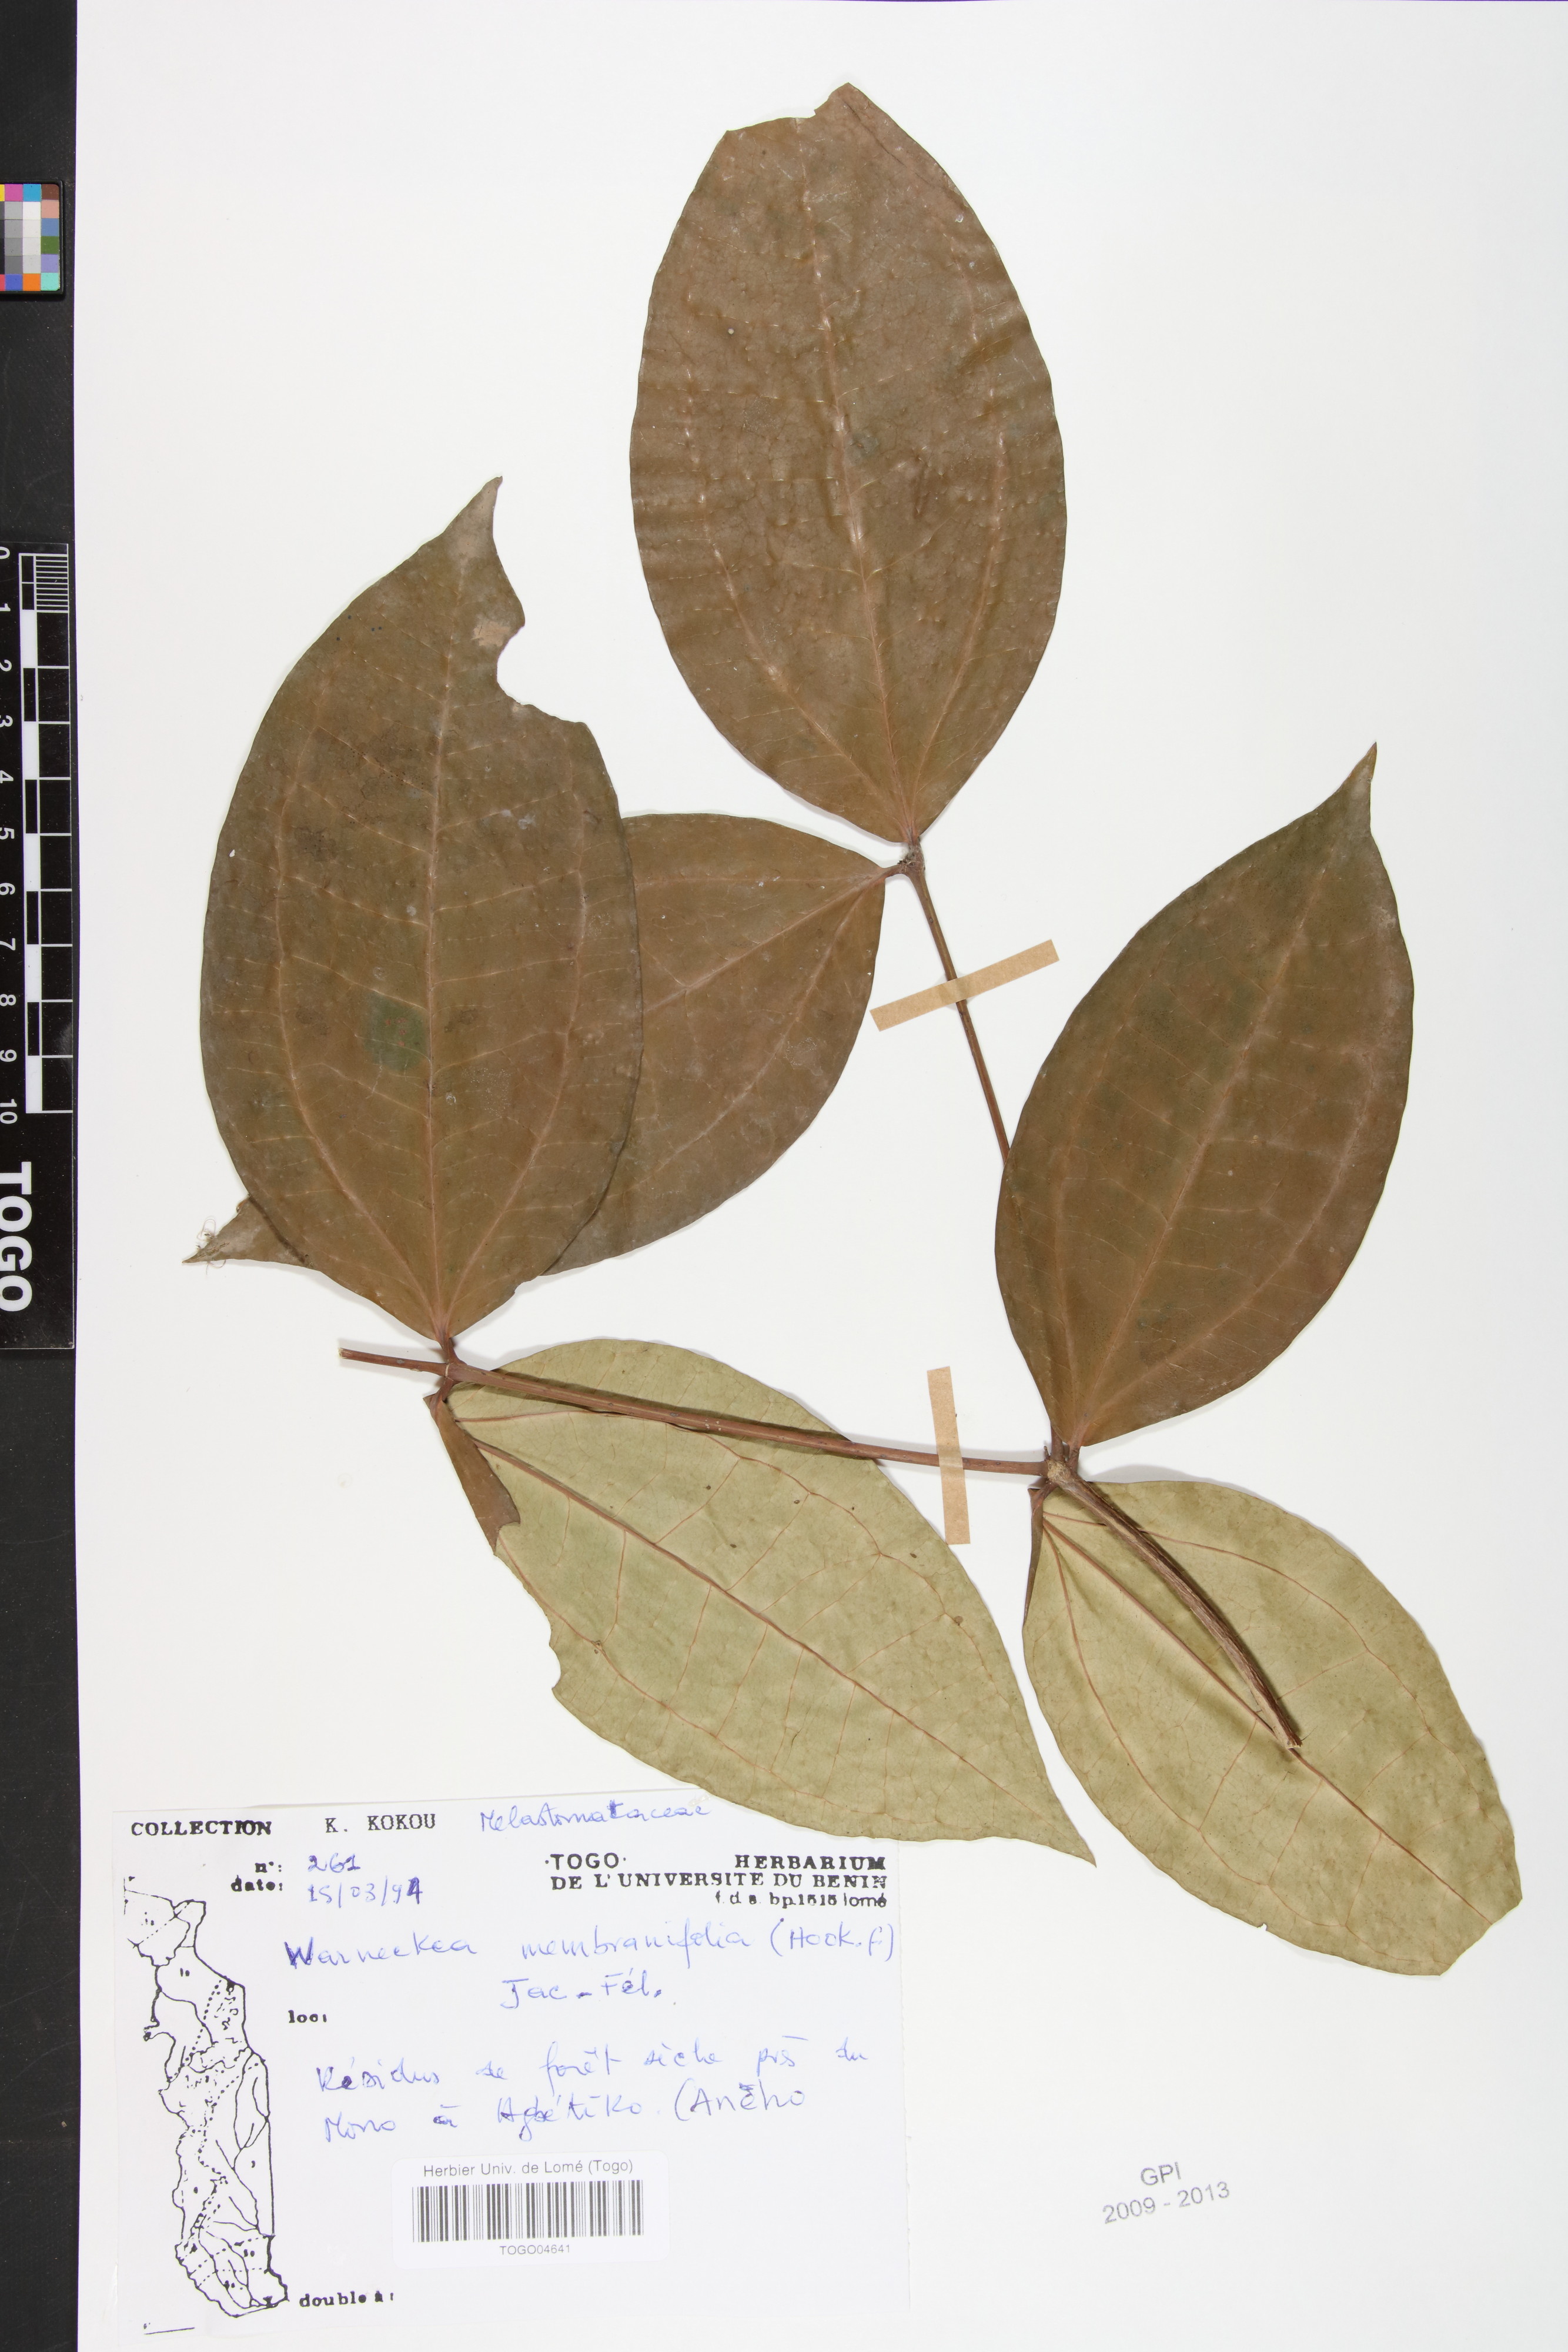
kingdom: Plantae
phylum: Tracheophyta
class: Magnoliopsida
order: Myrtales
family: Melastomataceae
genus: Warneckea
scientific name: Warneckea membranifolia
